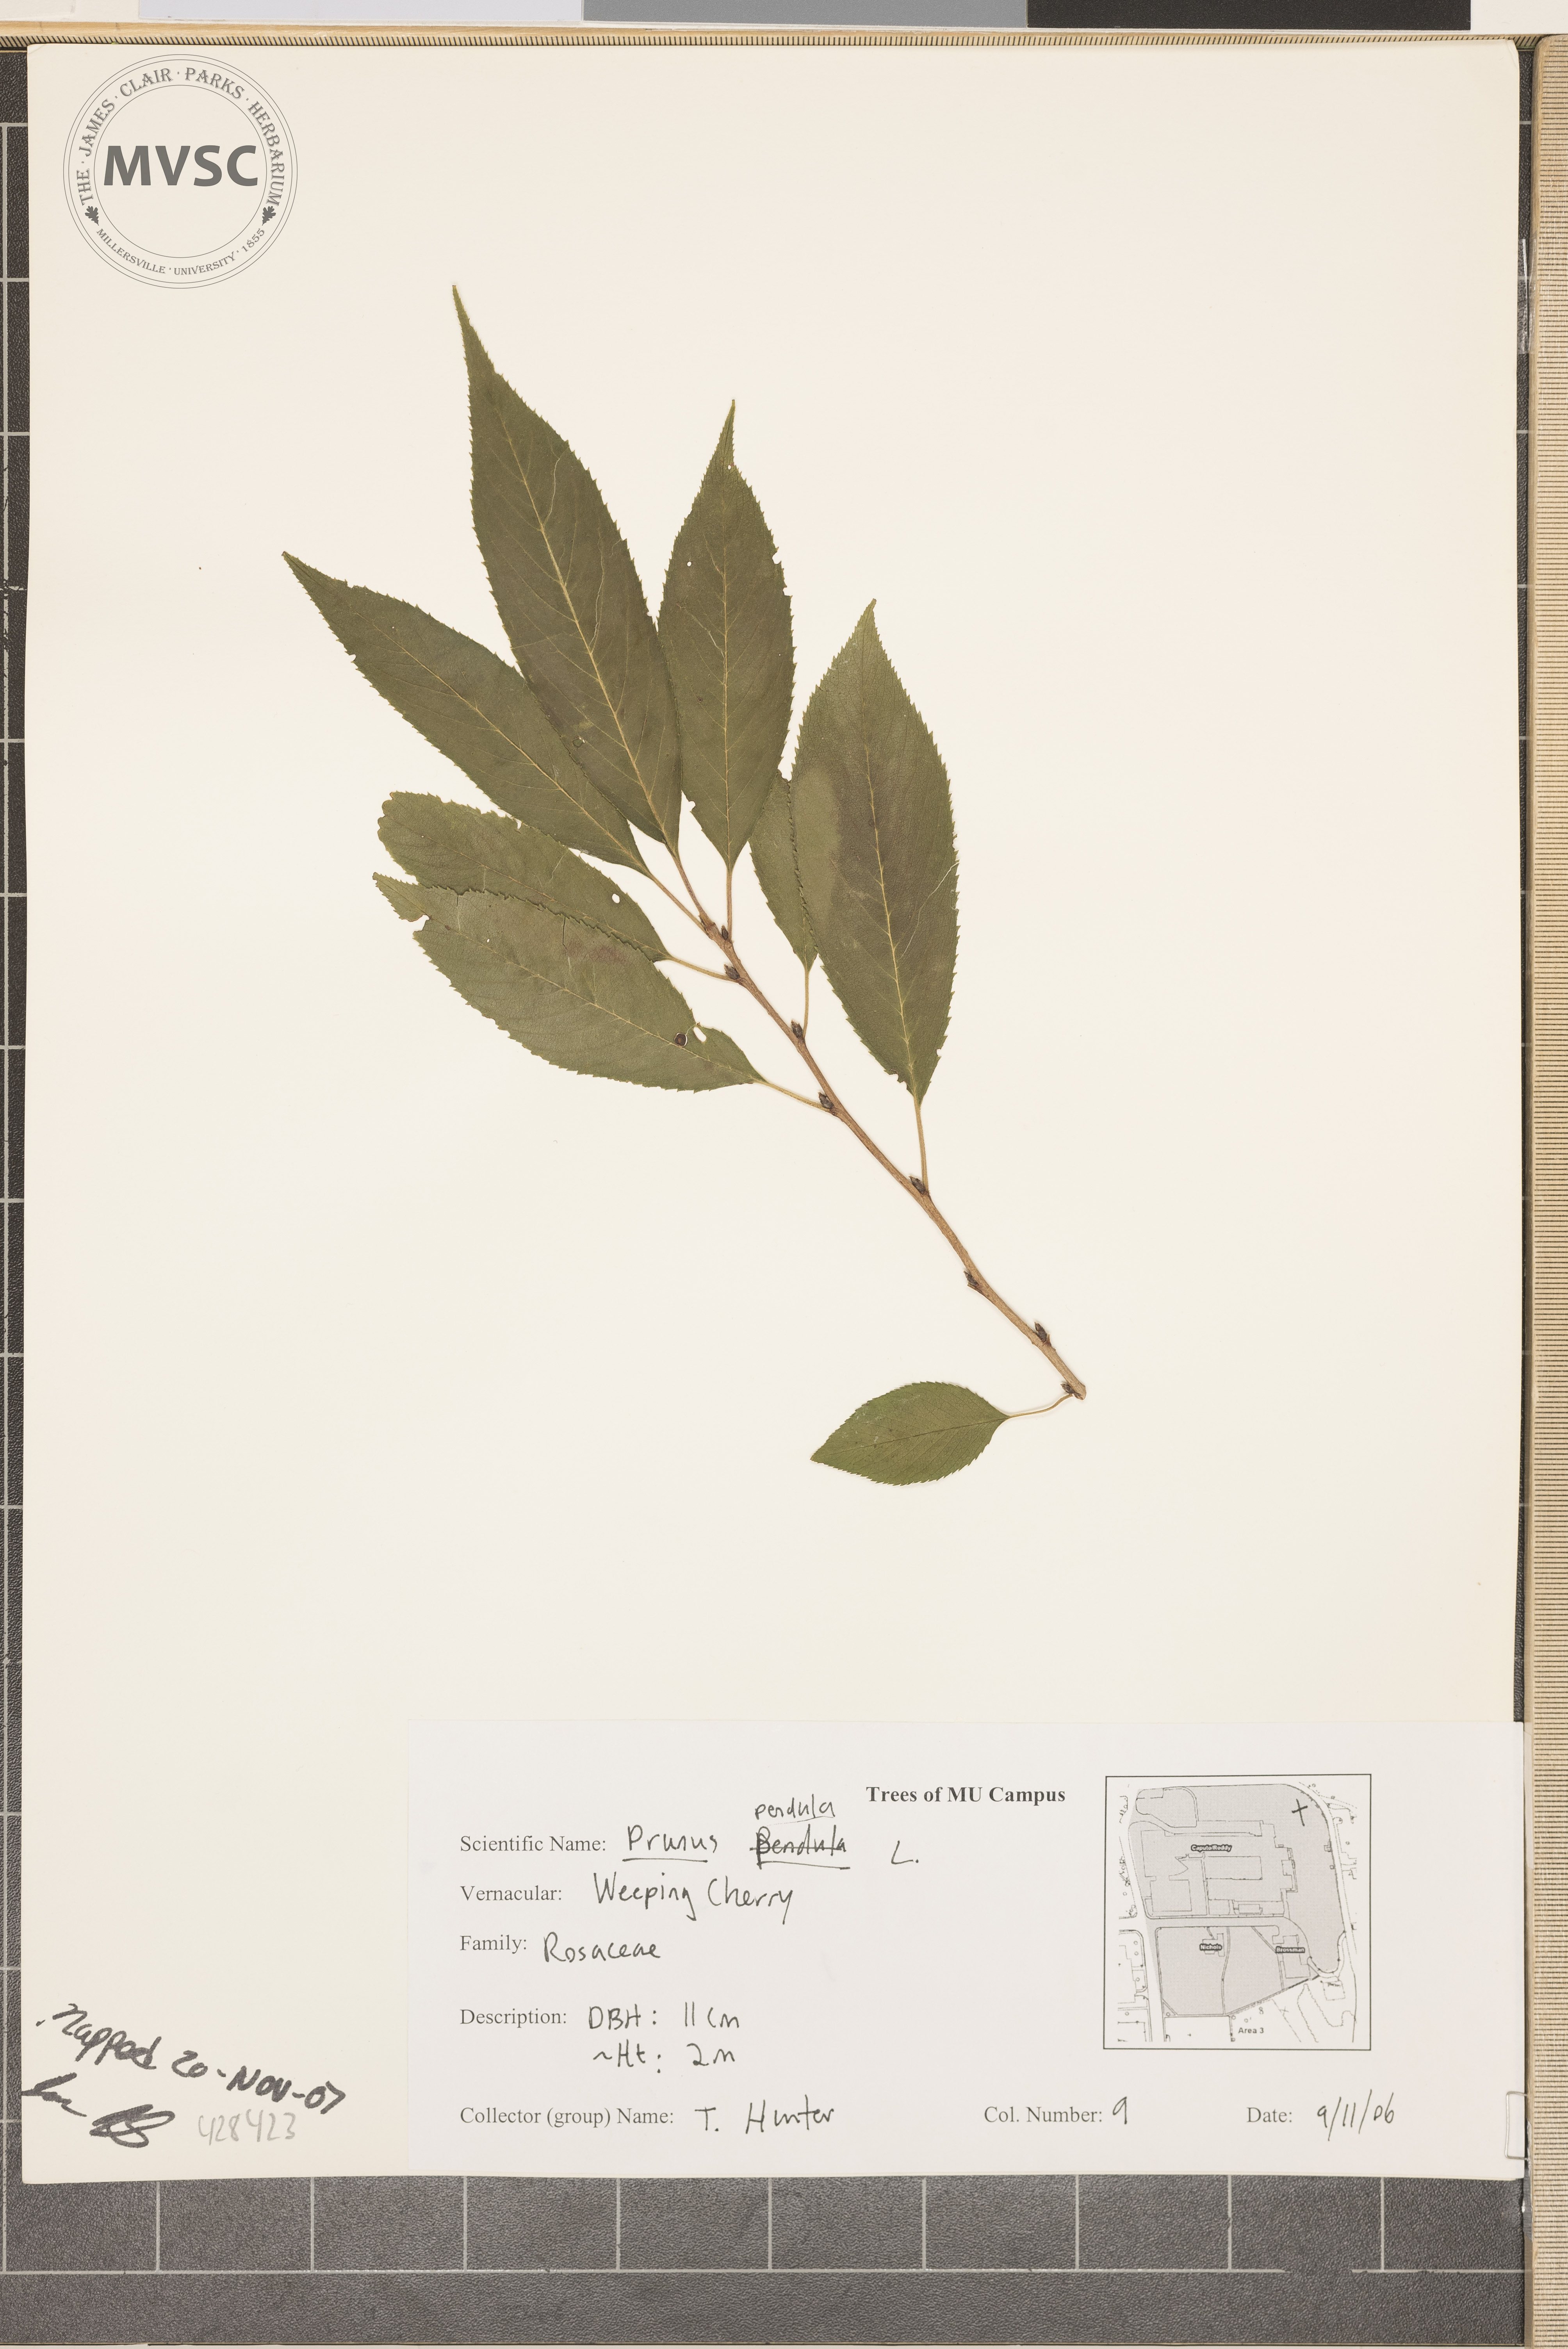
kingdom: Plantae
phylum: Tracheophyta
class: Magnoliopsida
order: Rosales
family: Rosaceae
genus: Prunus
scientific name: Prunus
